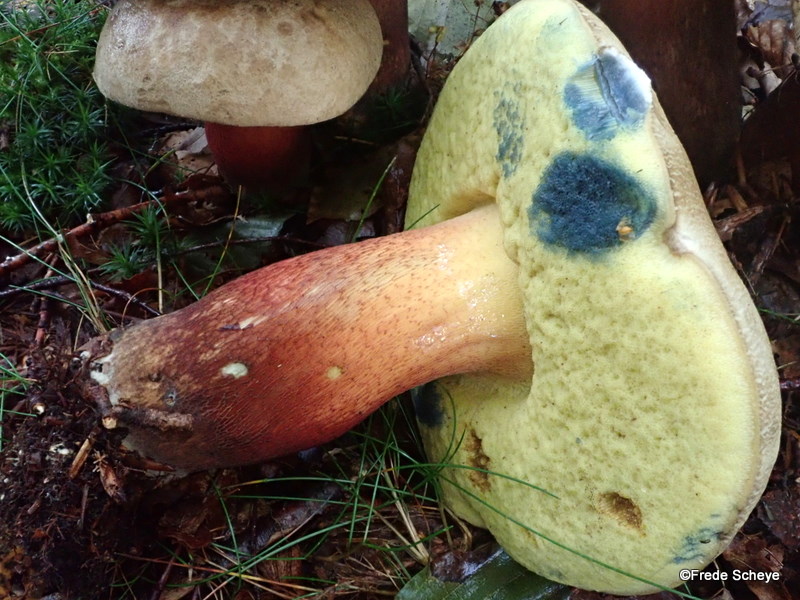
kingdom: Fungi
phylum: Basidiomycota
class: Agaricomycetes
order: Boletales
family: Boletaceae
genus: Caloboletus
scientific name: Caloboletus calopus
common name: skønfodet rørhat
